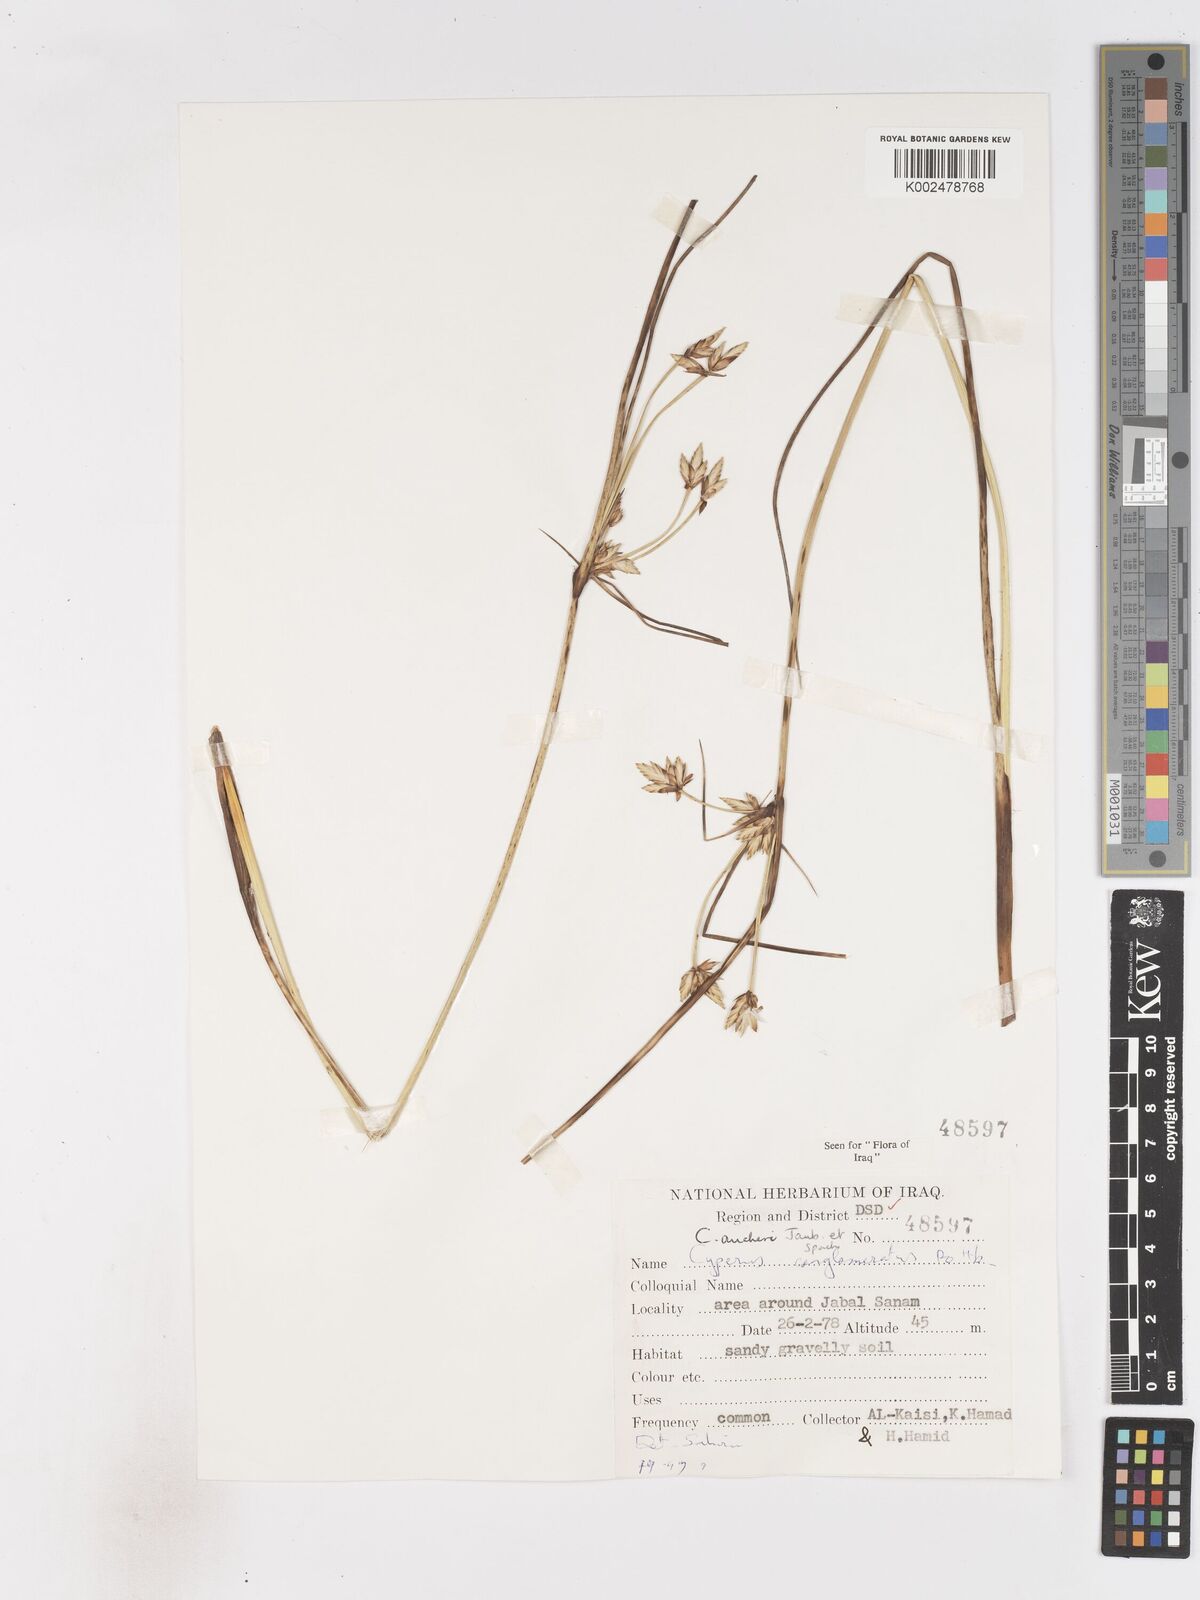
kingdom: Plantae
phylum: Tracheophyta
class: Liliopsida
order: Poales
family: Cyperaceae
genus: Cyperus
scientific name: Cyperus aucheri
